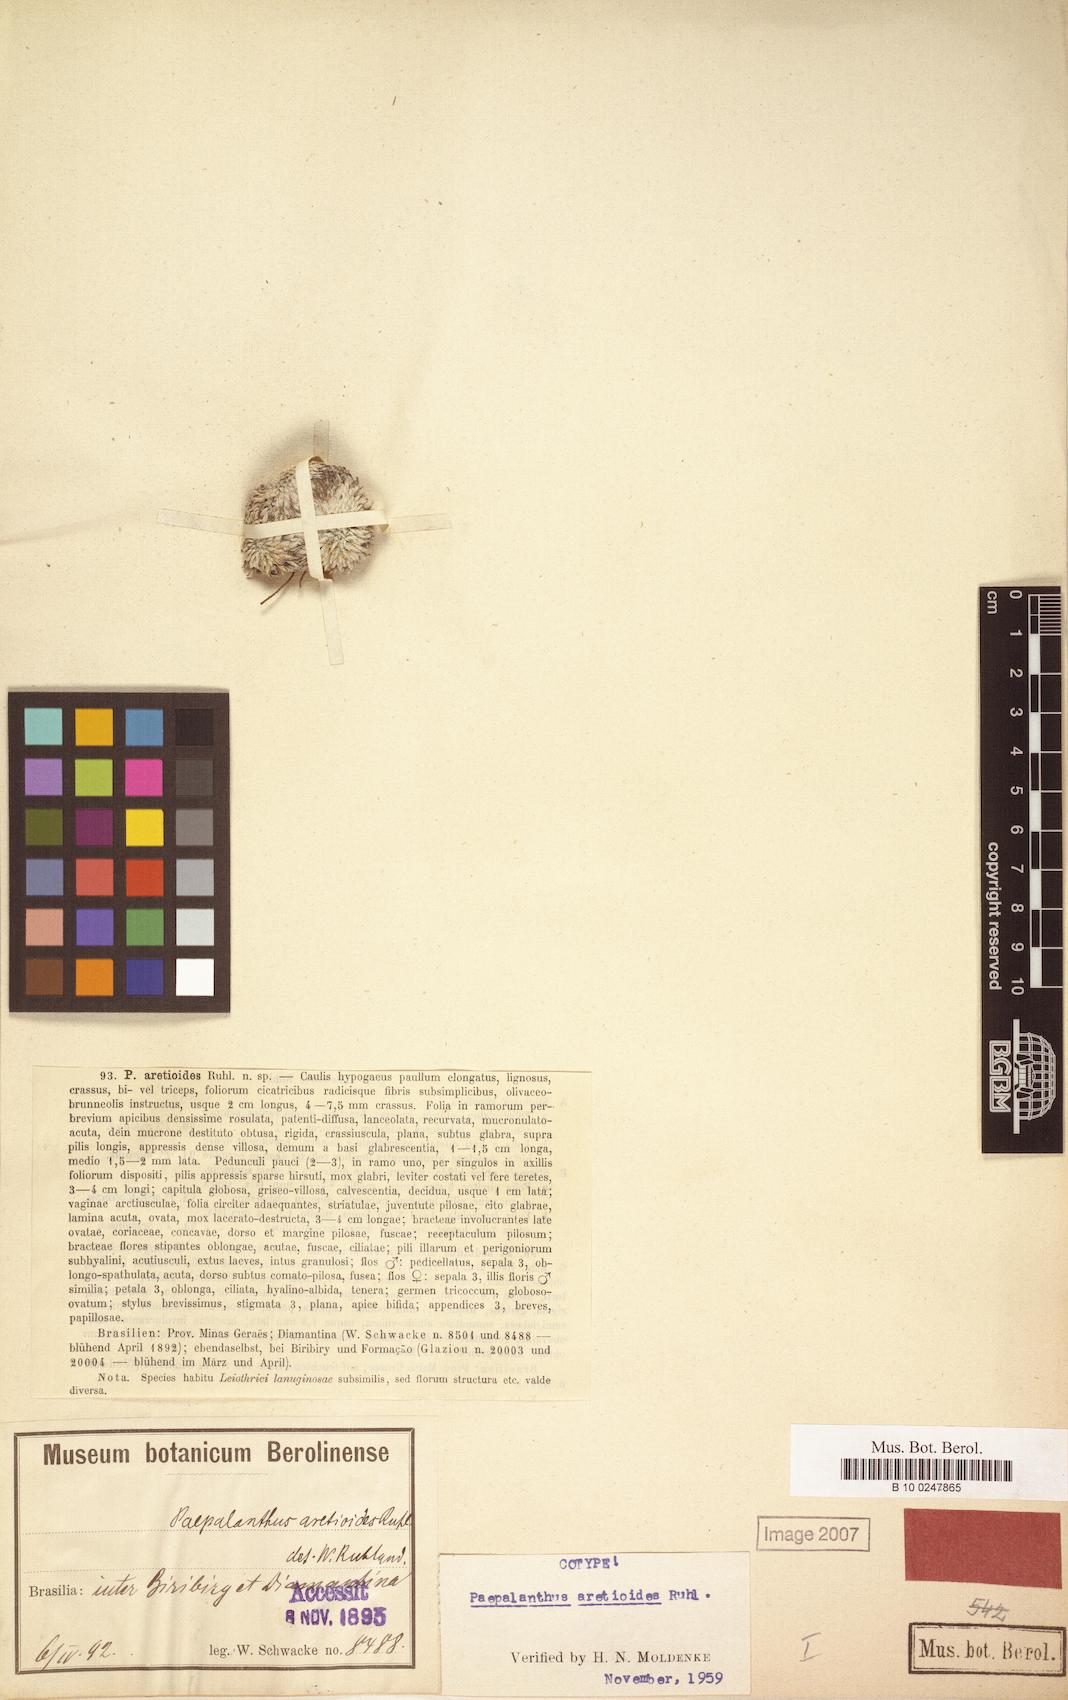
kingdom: Plantae
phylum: Tracheophyta
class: Liliopsida
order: Poales
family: Eriocaulaceae
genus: Paepalanthus
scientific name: Paepalanthus aretioides
